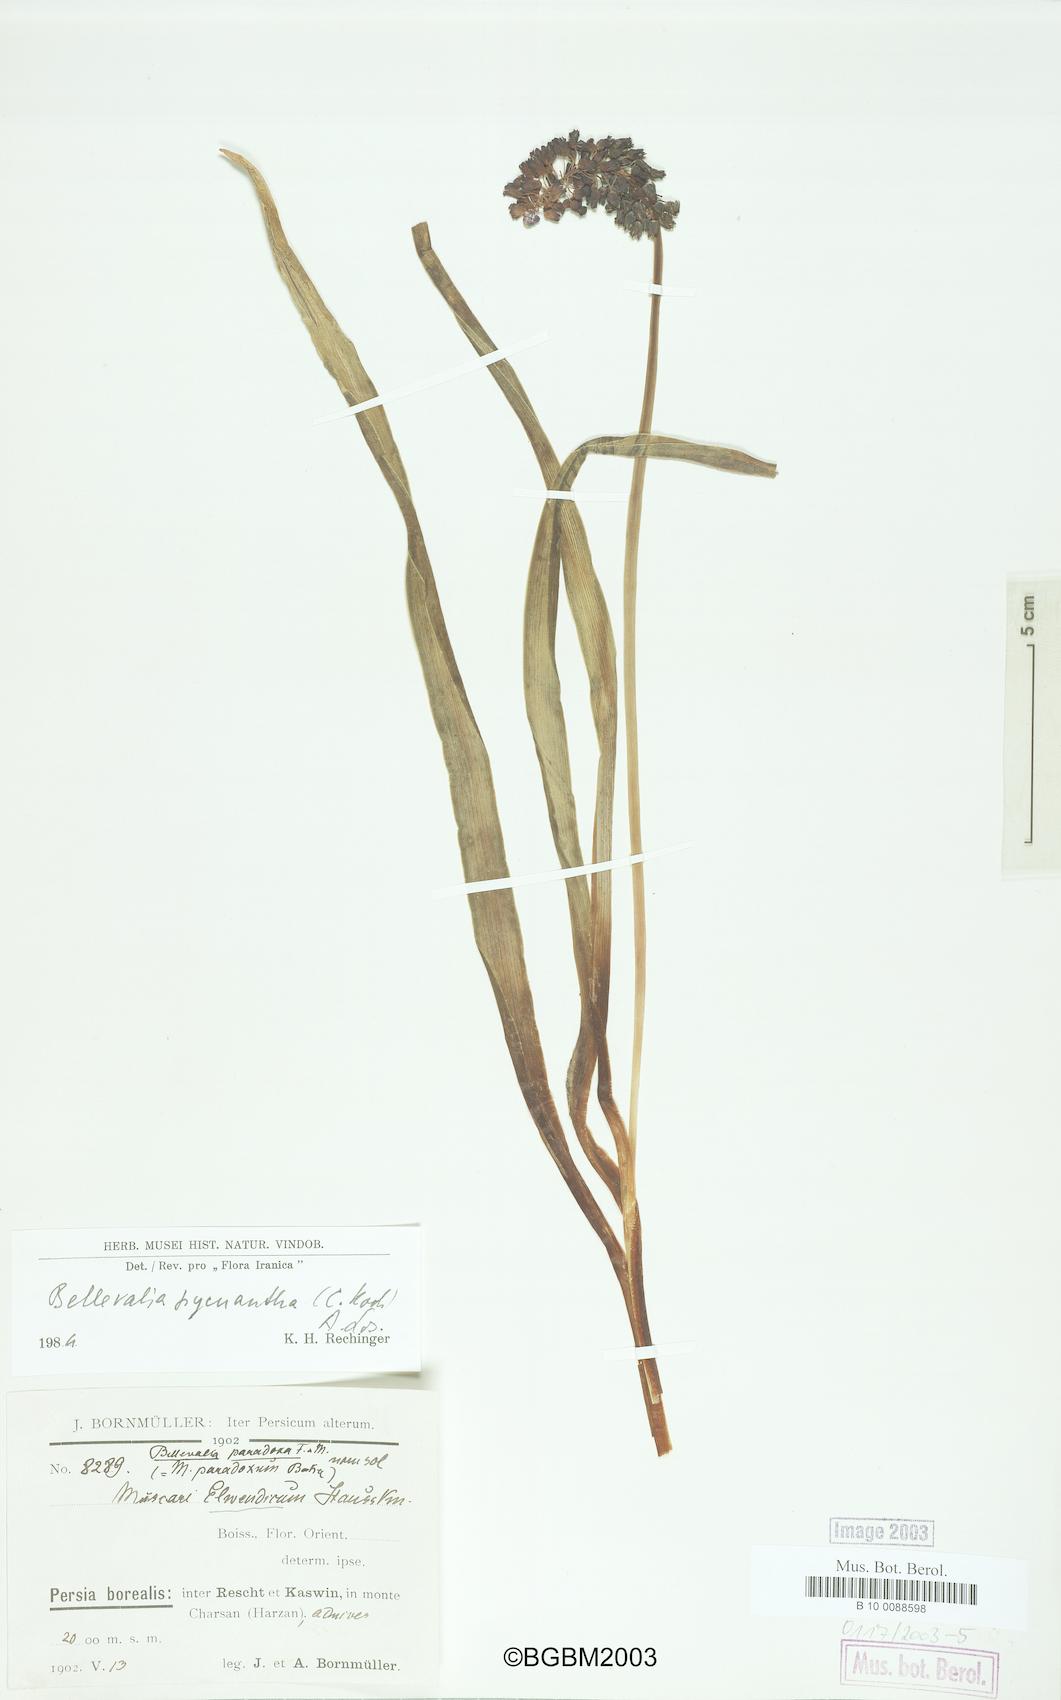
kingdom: Plantae
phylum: Tracheophyta
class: Liliopsida
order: Asparagales
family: Asparagaceae
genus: Bellevalia
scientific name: Bellevalia paradoxa
